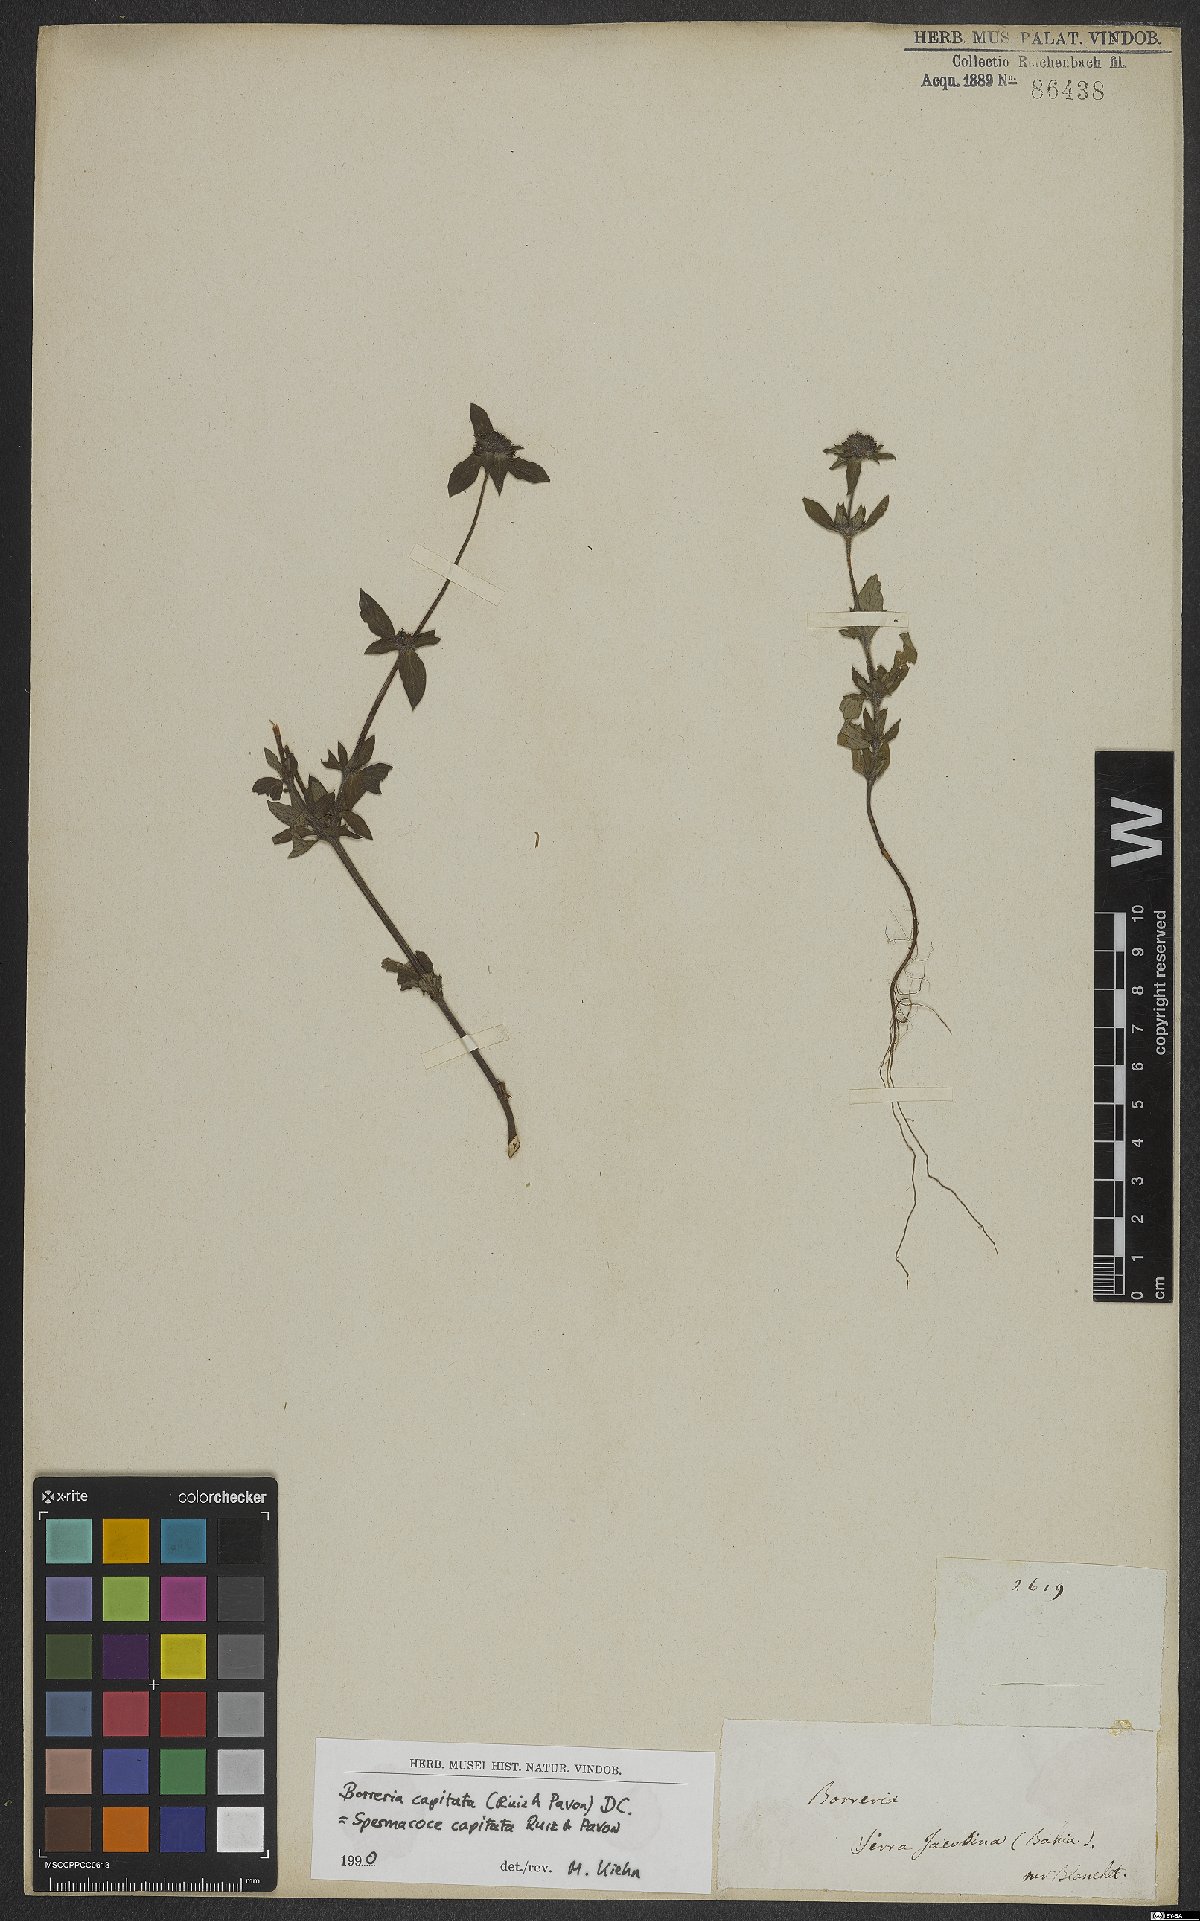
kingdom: Plantae
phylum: Tracheophyta
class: Magnoliopsida
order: Gentianales
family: Rubiaceae
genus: Spermacoce
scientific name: Spermacoce capitata
